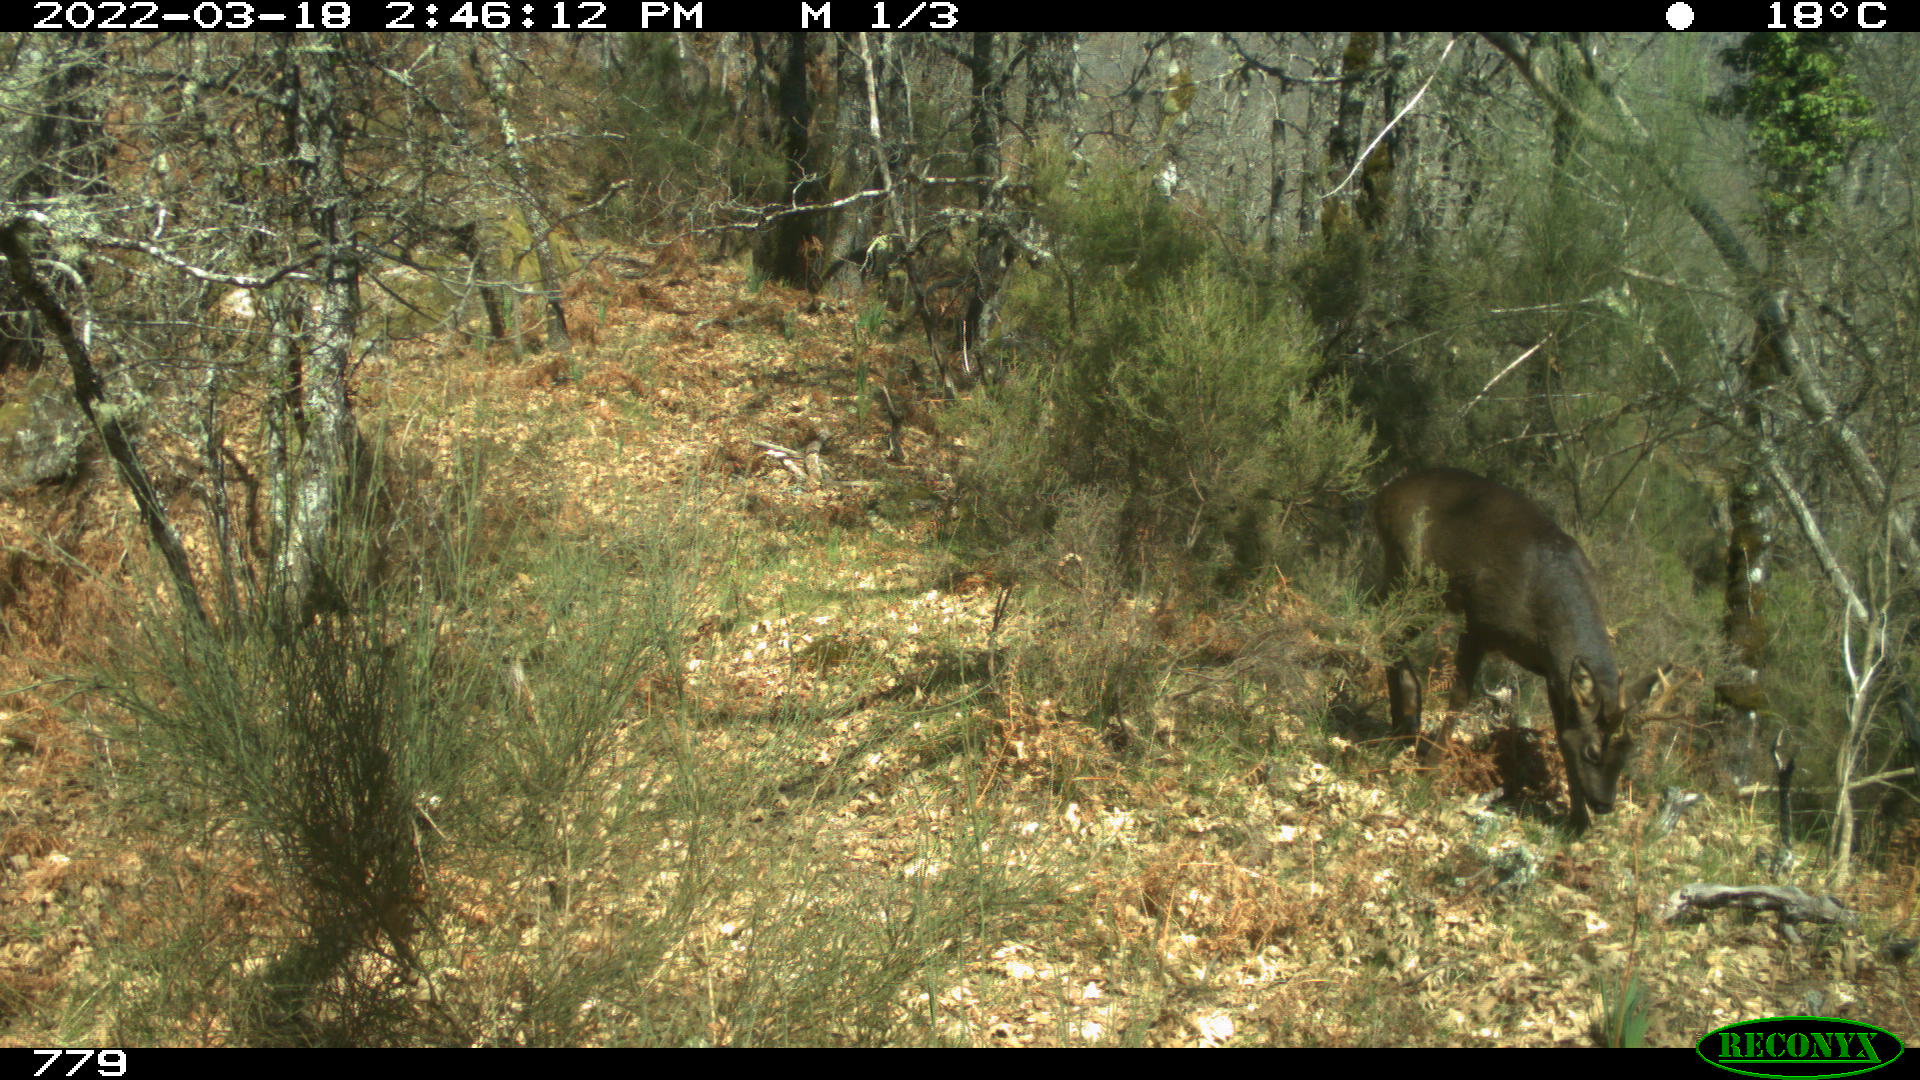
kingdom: Animalia
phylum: Chordata
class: Mammalia
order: Artiodactyla
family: Cervidae
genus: Capreolus
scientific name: Capreolus capreolus
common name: Western roe deer
